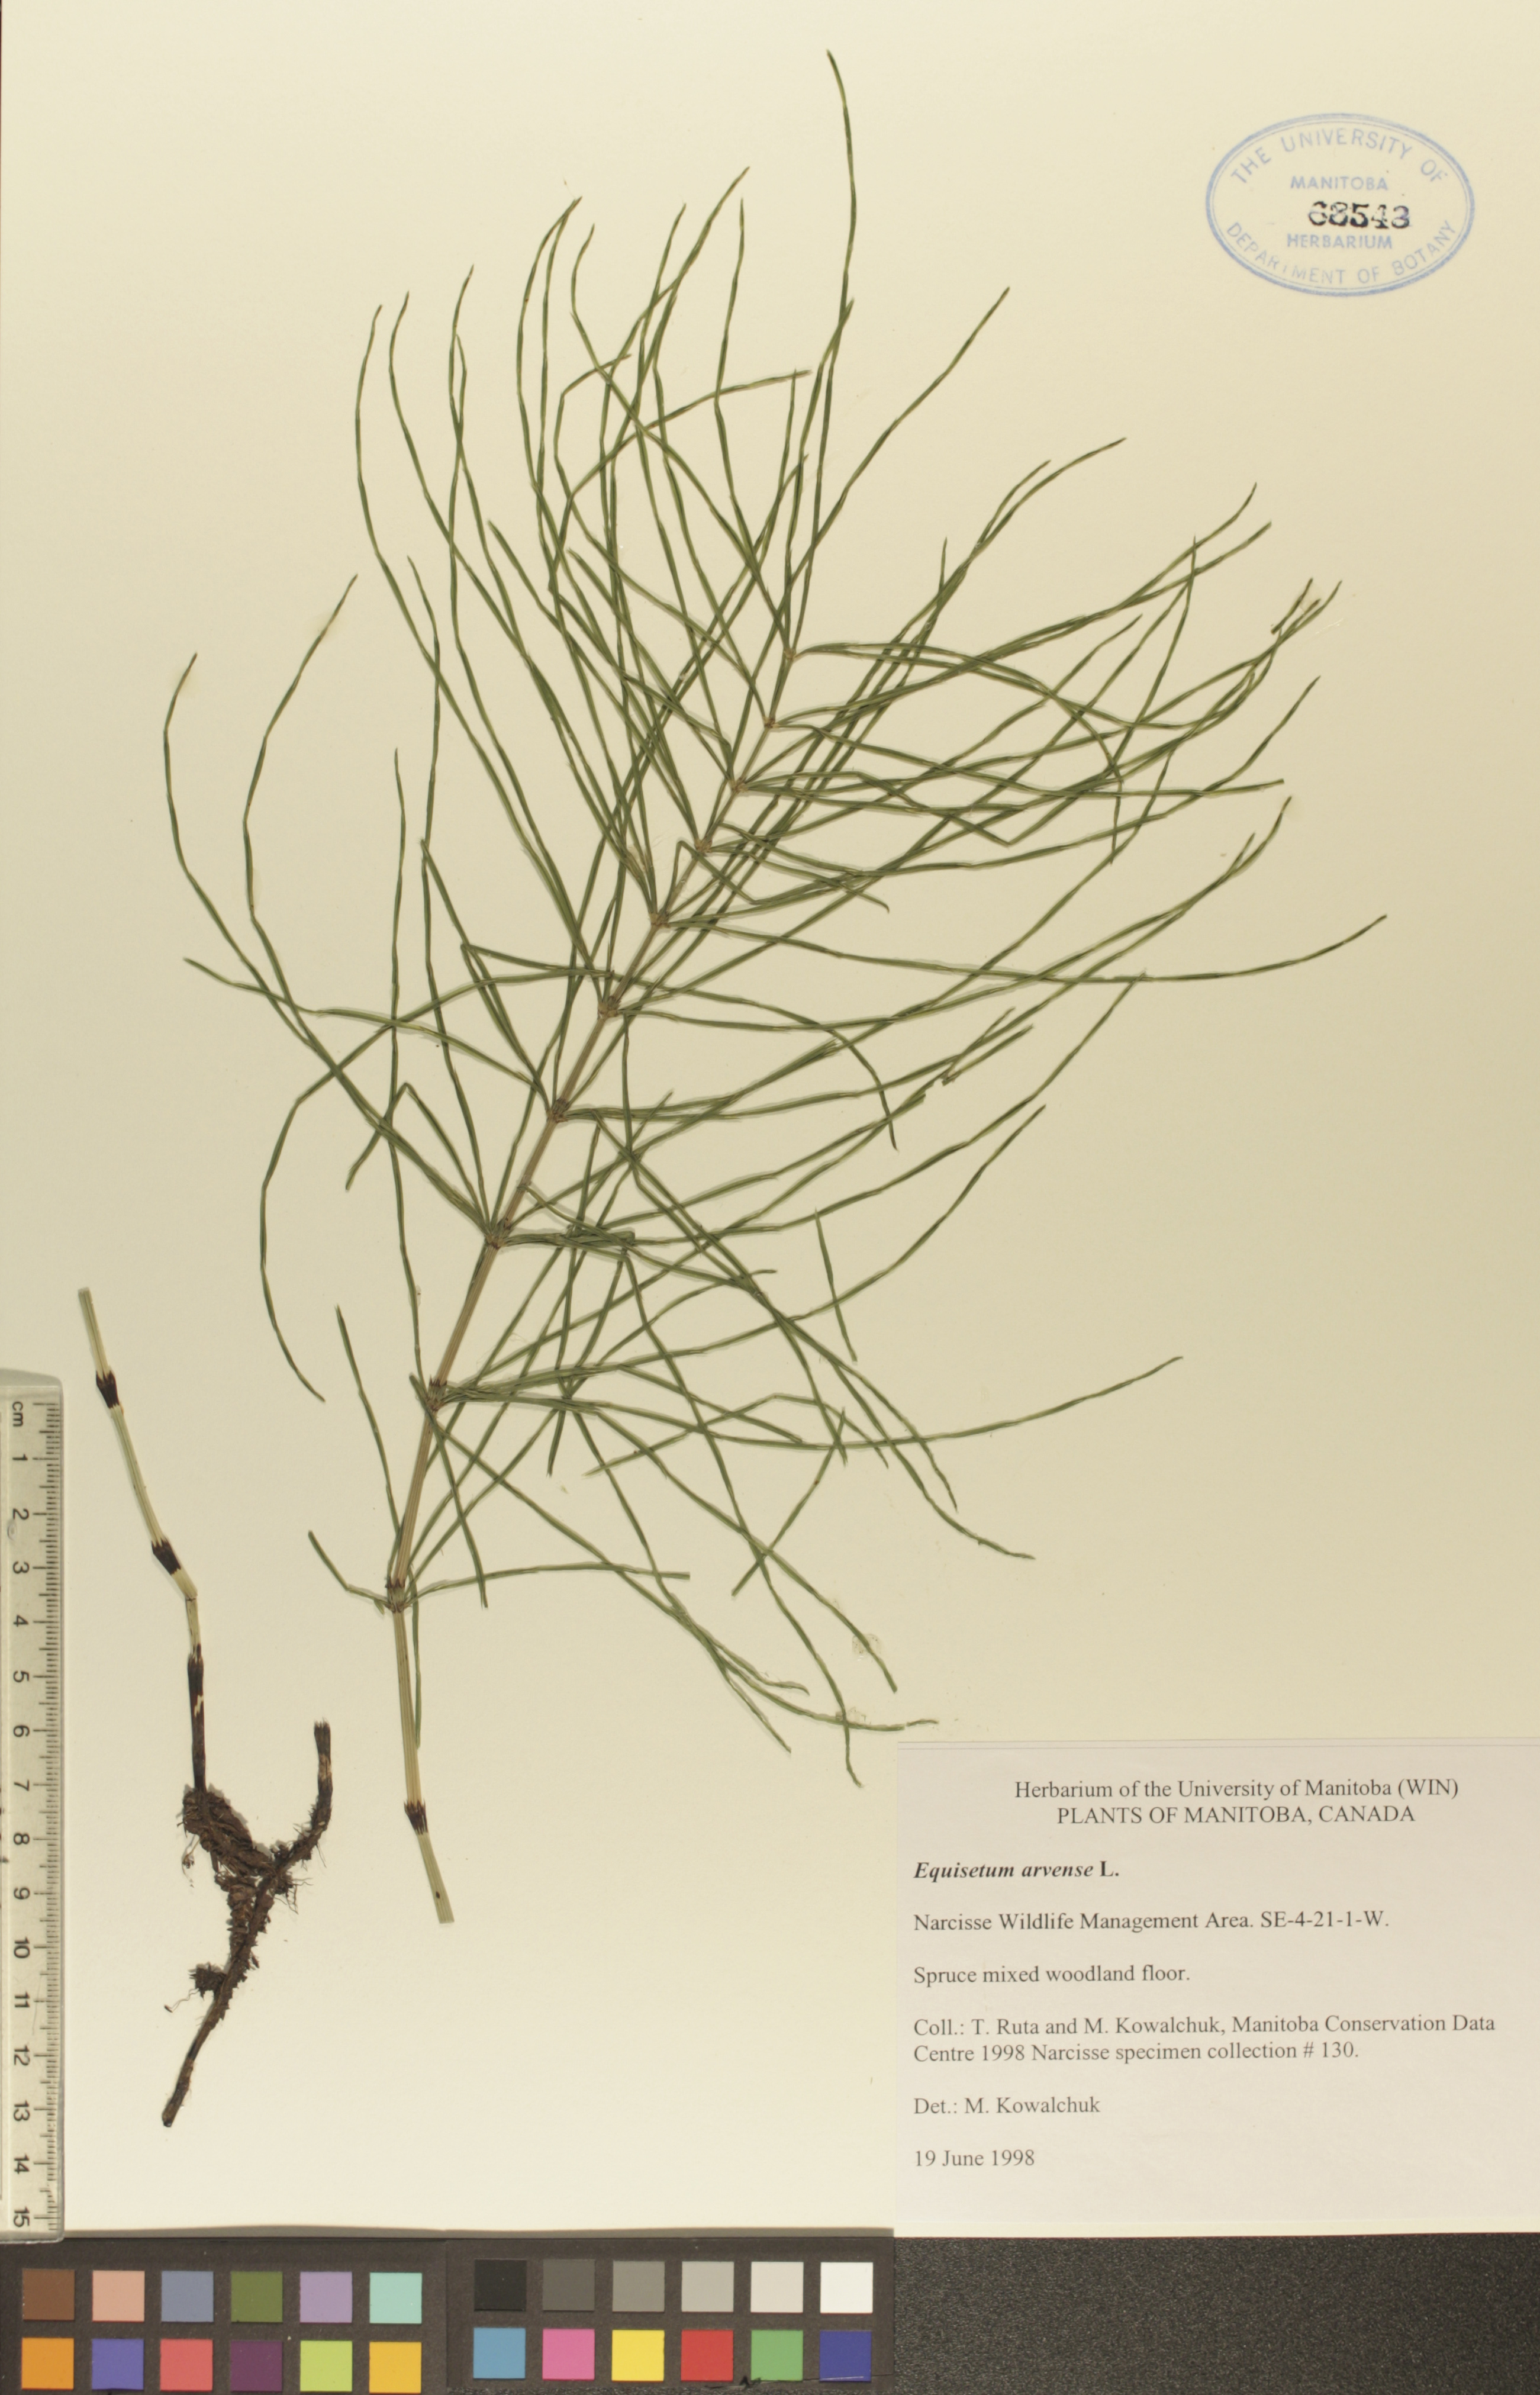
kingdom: Plantae
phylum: Tracheophyta
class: Polypodiopsida
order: Equisetales
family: Equisetaceae
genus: Equisetum
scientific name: Equisetum arvense
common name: Field horsetail
